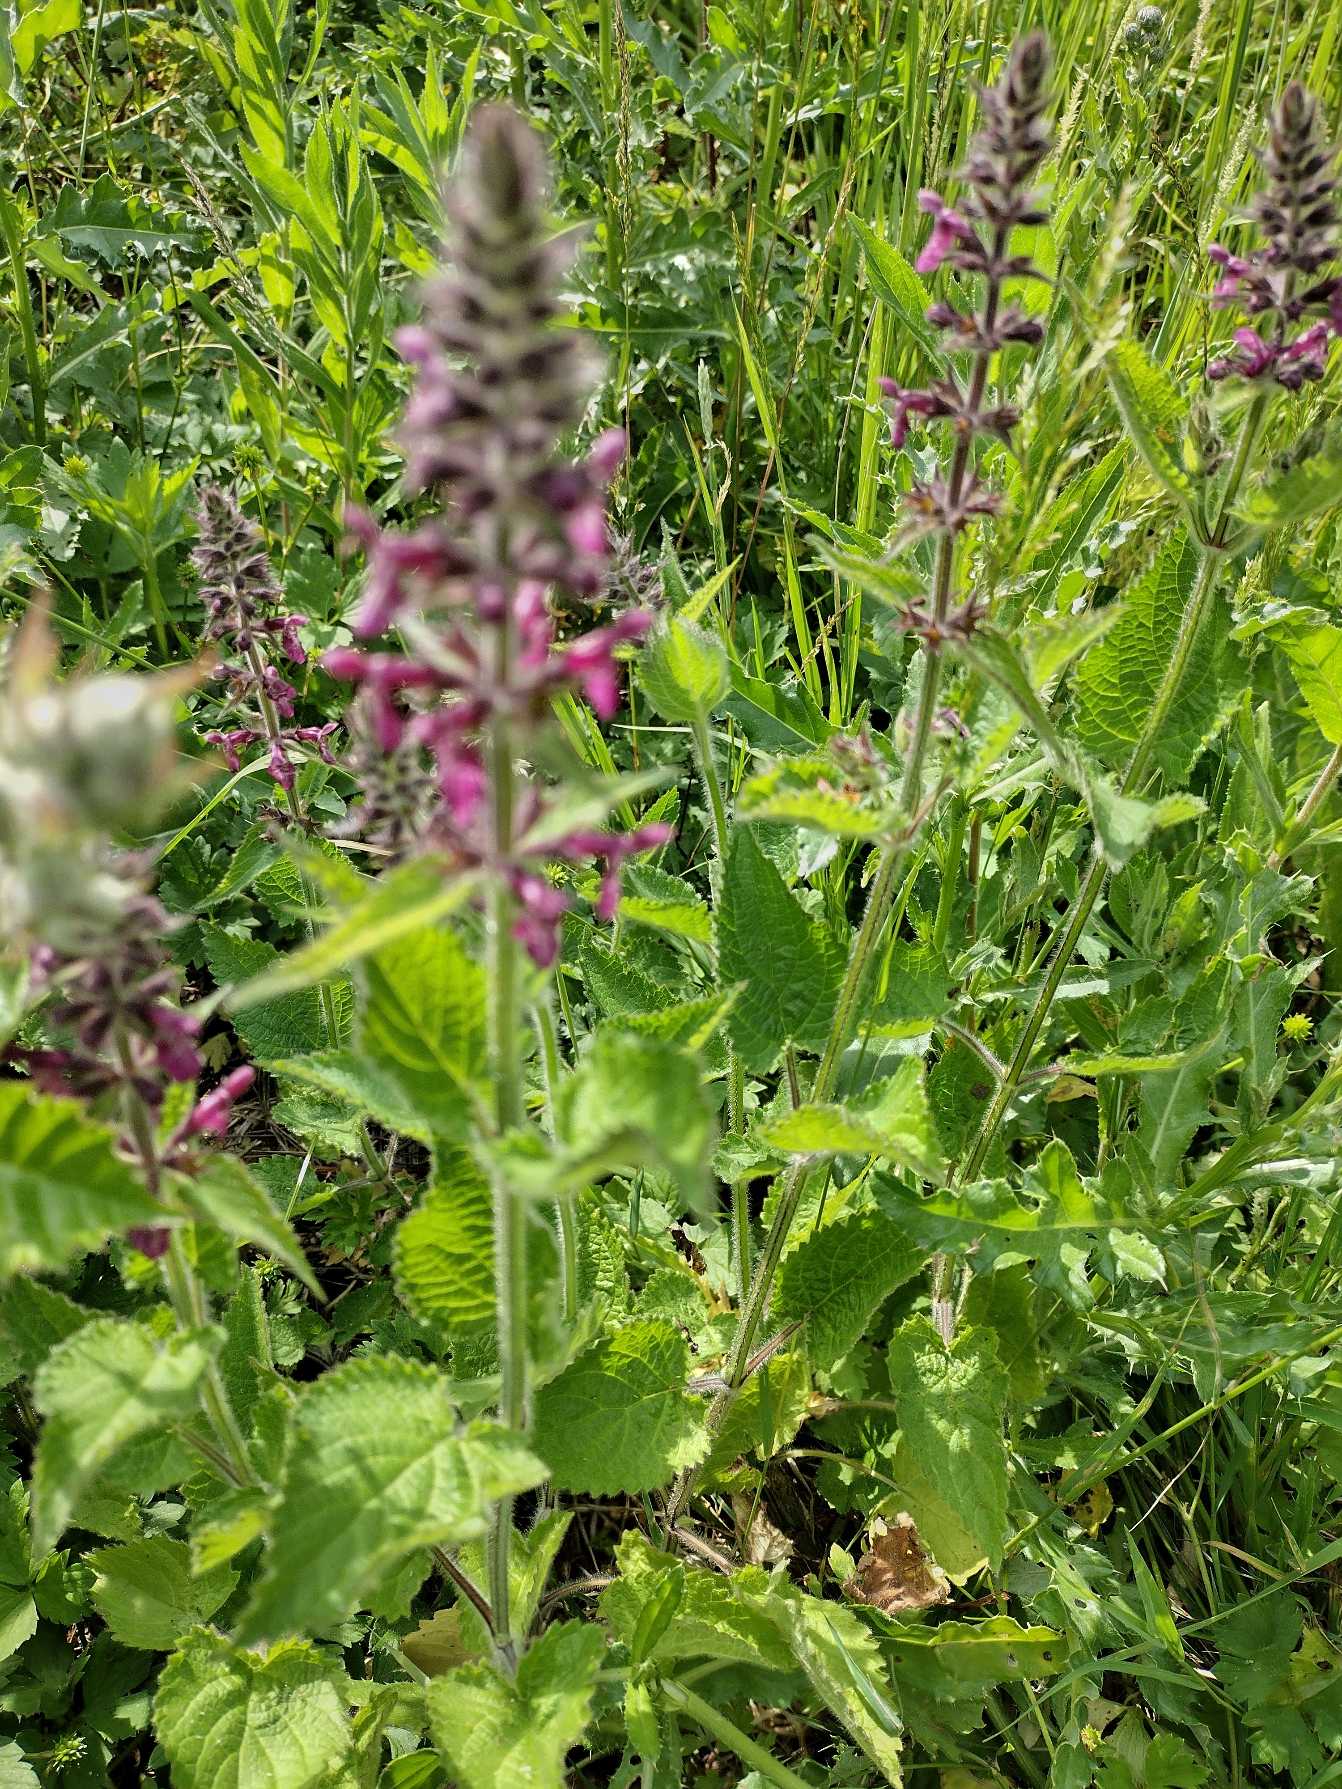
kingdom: Plantae
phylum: Tracheophyta
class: Magnoliopsida
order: Lamiales
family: Lamiaceae
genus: Stachys
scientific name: Stachys sylvatica
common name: Skov-galtetand
